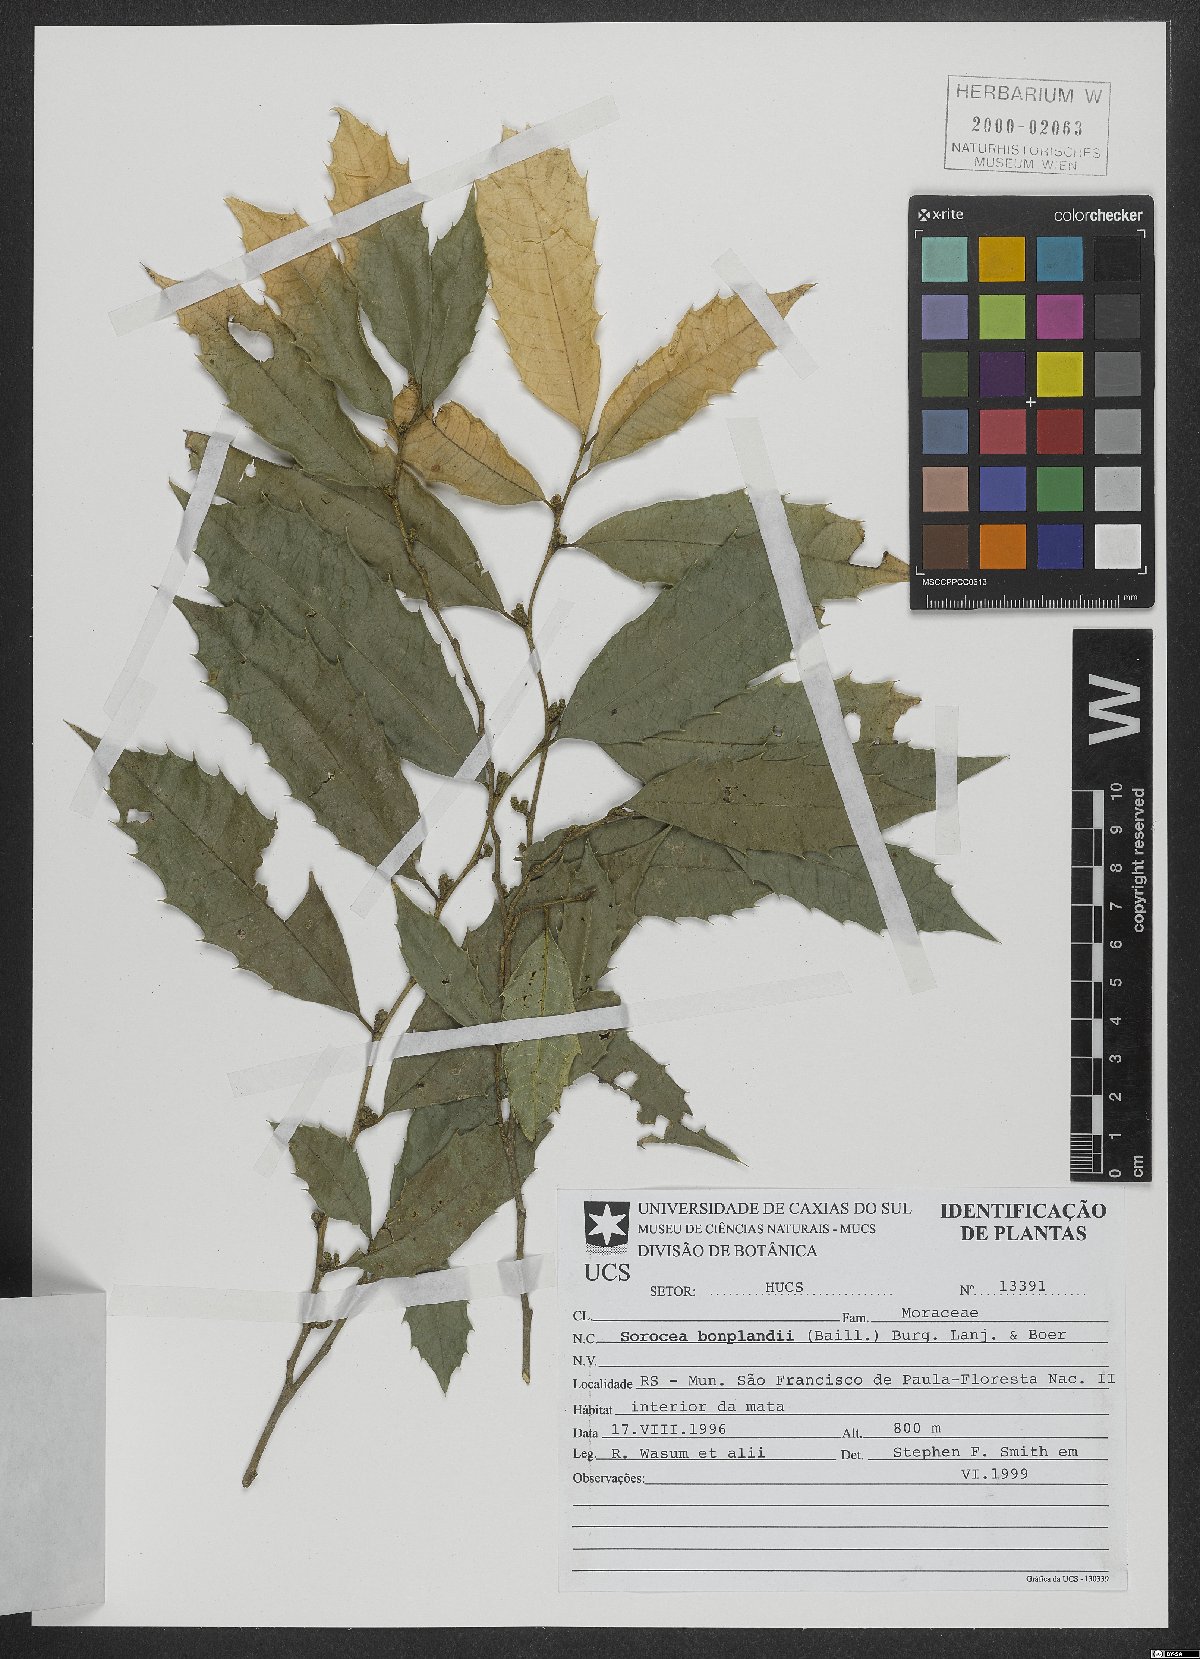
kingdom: Plantae
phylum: Tracheophyta
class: Magnoliopsida
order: Rosales
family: Moraceae
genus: Sorocea
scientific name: Sorocea bonplandii
